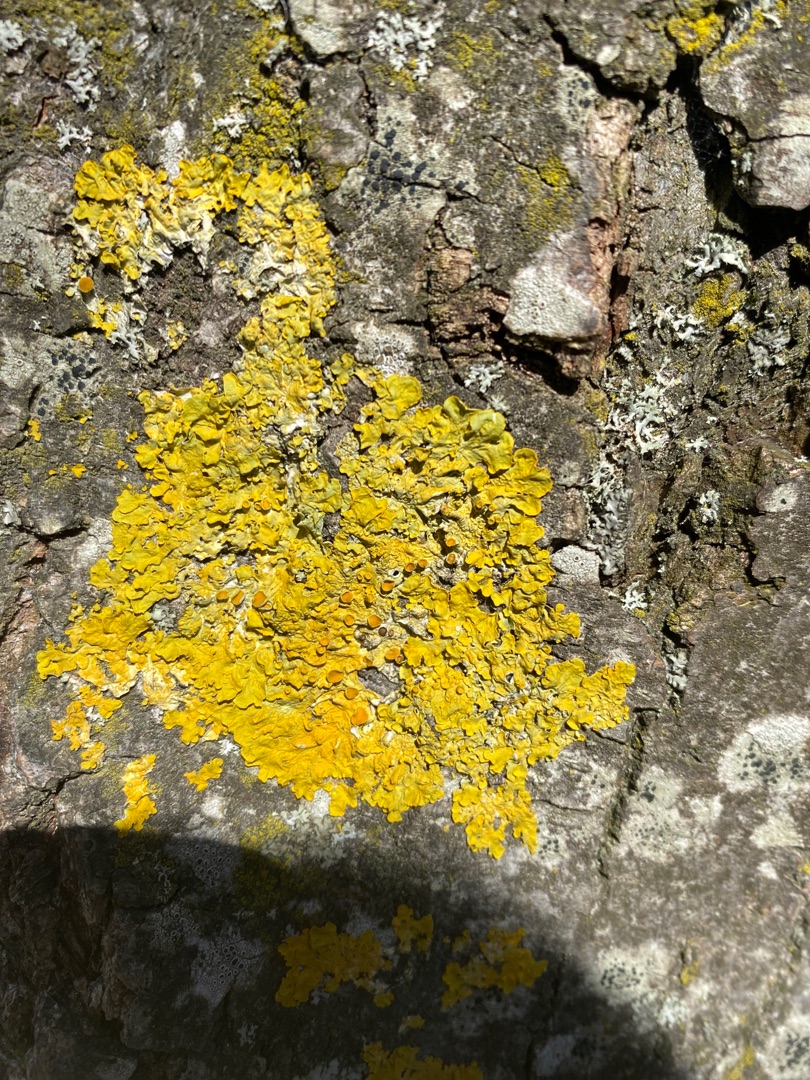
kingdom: Fungi
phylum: Ascomycota
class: Lecanoromycetes
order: Teloschistales
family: Teloschistaceae
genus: Xanthoria
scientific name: Xanthoria parietina
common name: Almindelig væggelav
